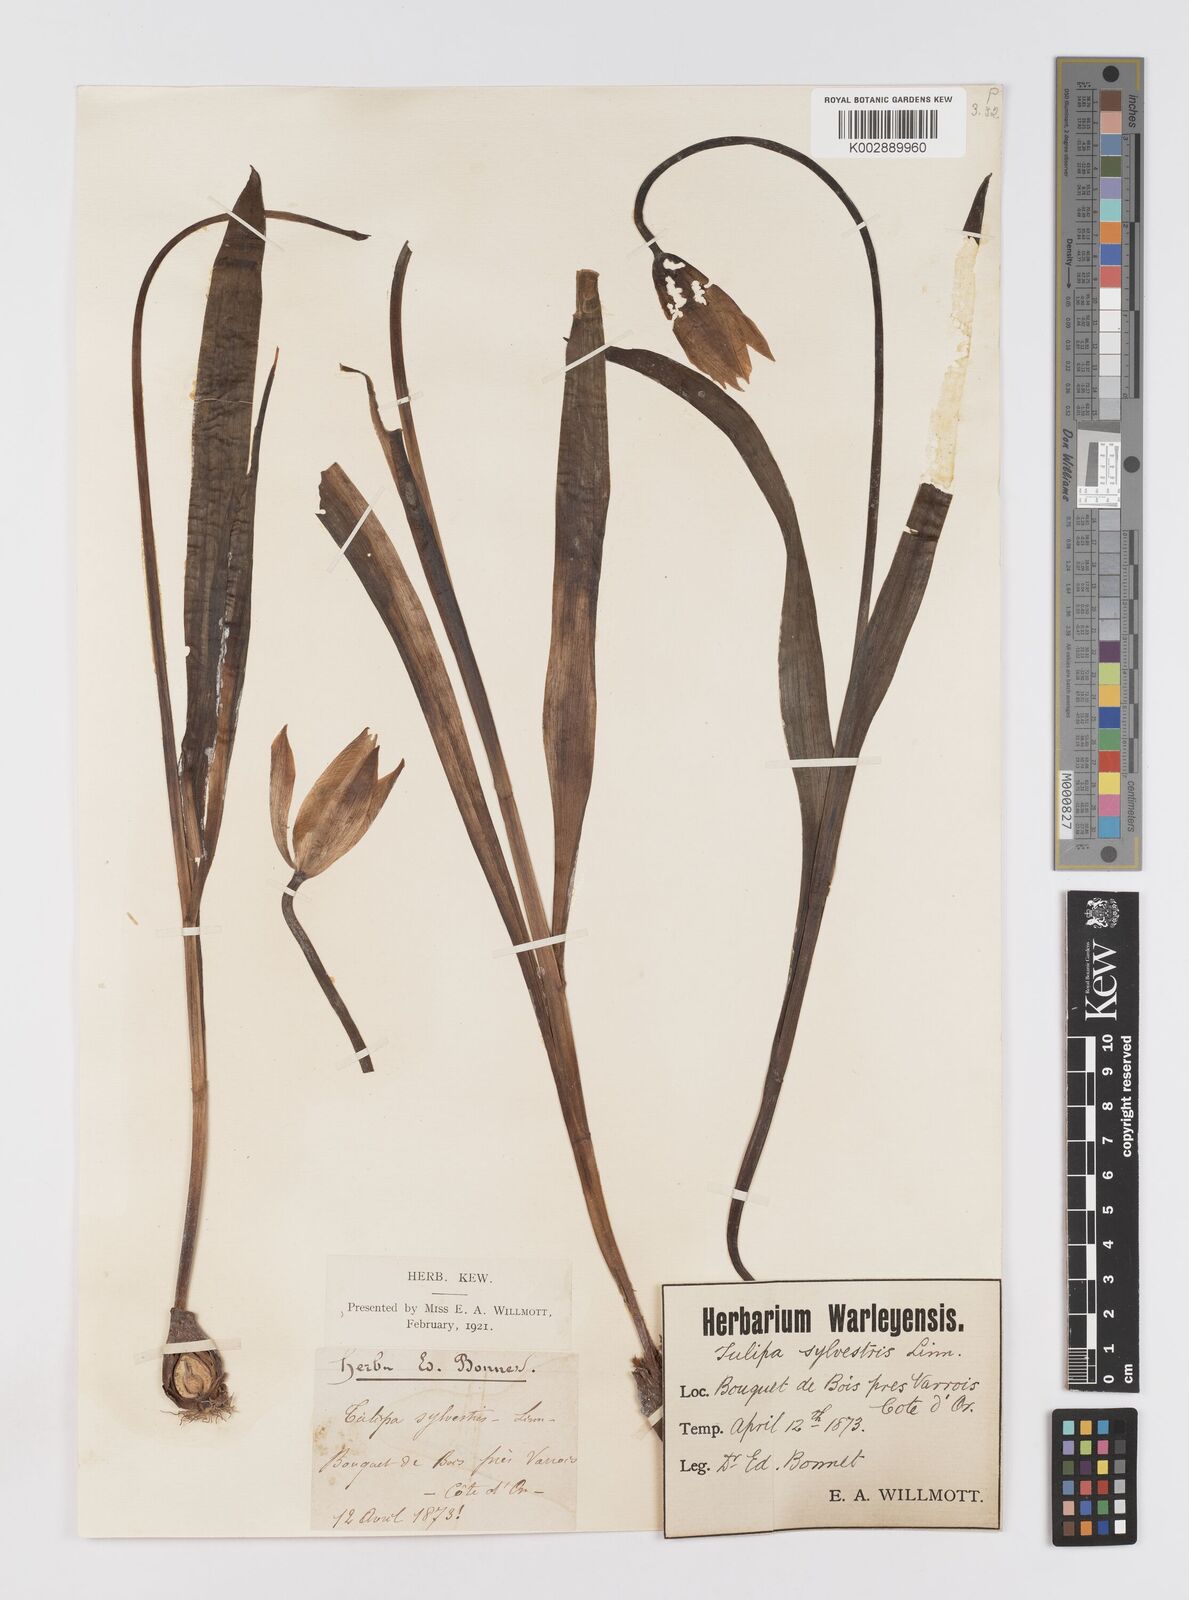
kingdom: Plantae
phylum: Tracheophyta
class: Liliopsida
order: Liliales
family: Liliaceae
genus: Tulipa
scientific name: Tulipa sylvestris
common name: Wild tulip
